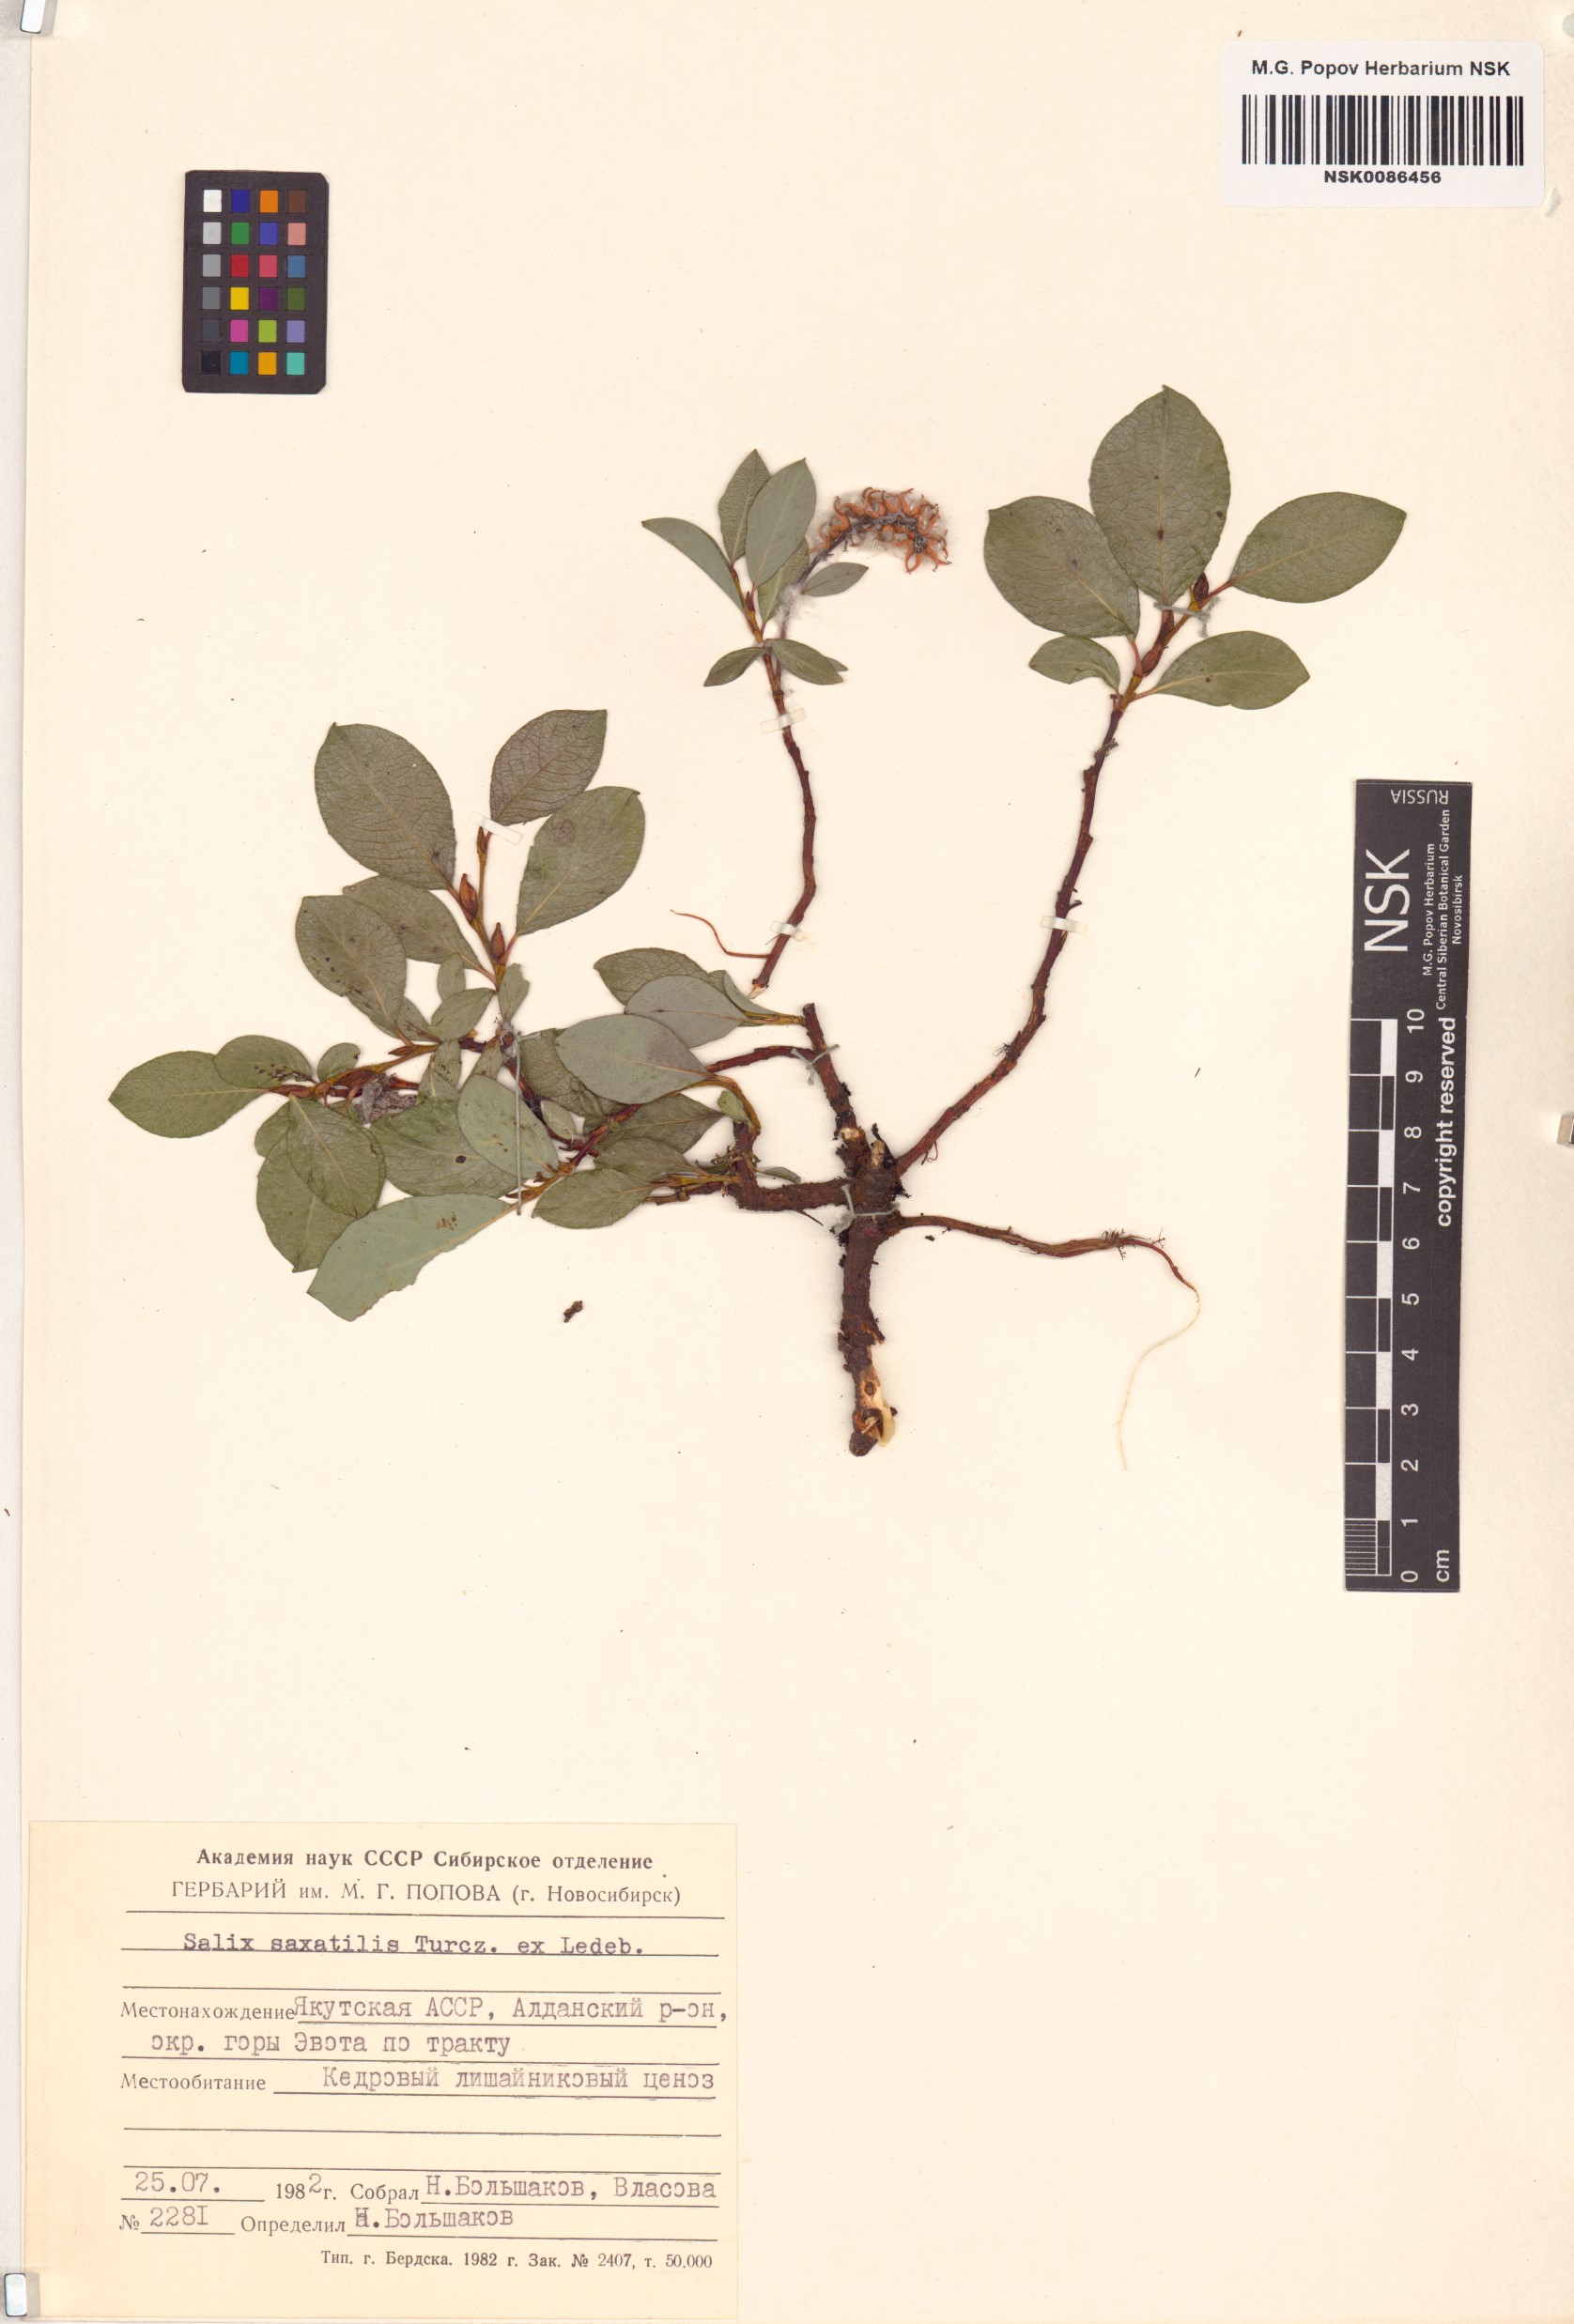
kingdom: Plantae
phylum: Tracheophyta
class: Magnoliopsida
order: Malpighiales
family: Salicaceae
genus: Salix
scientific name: Salix saxatilis
